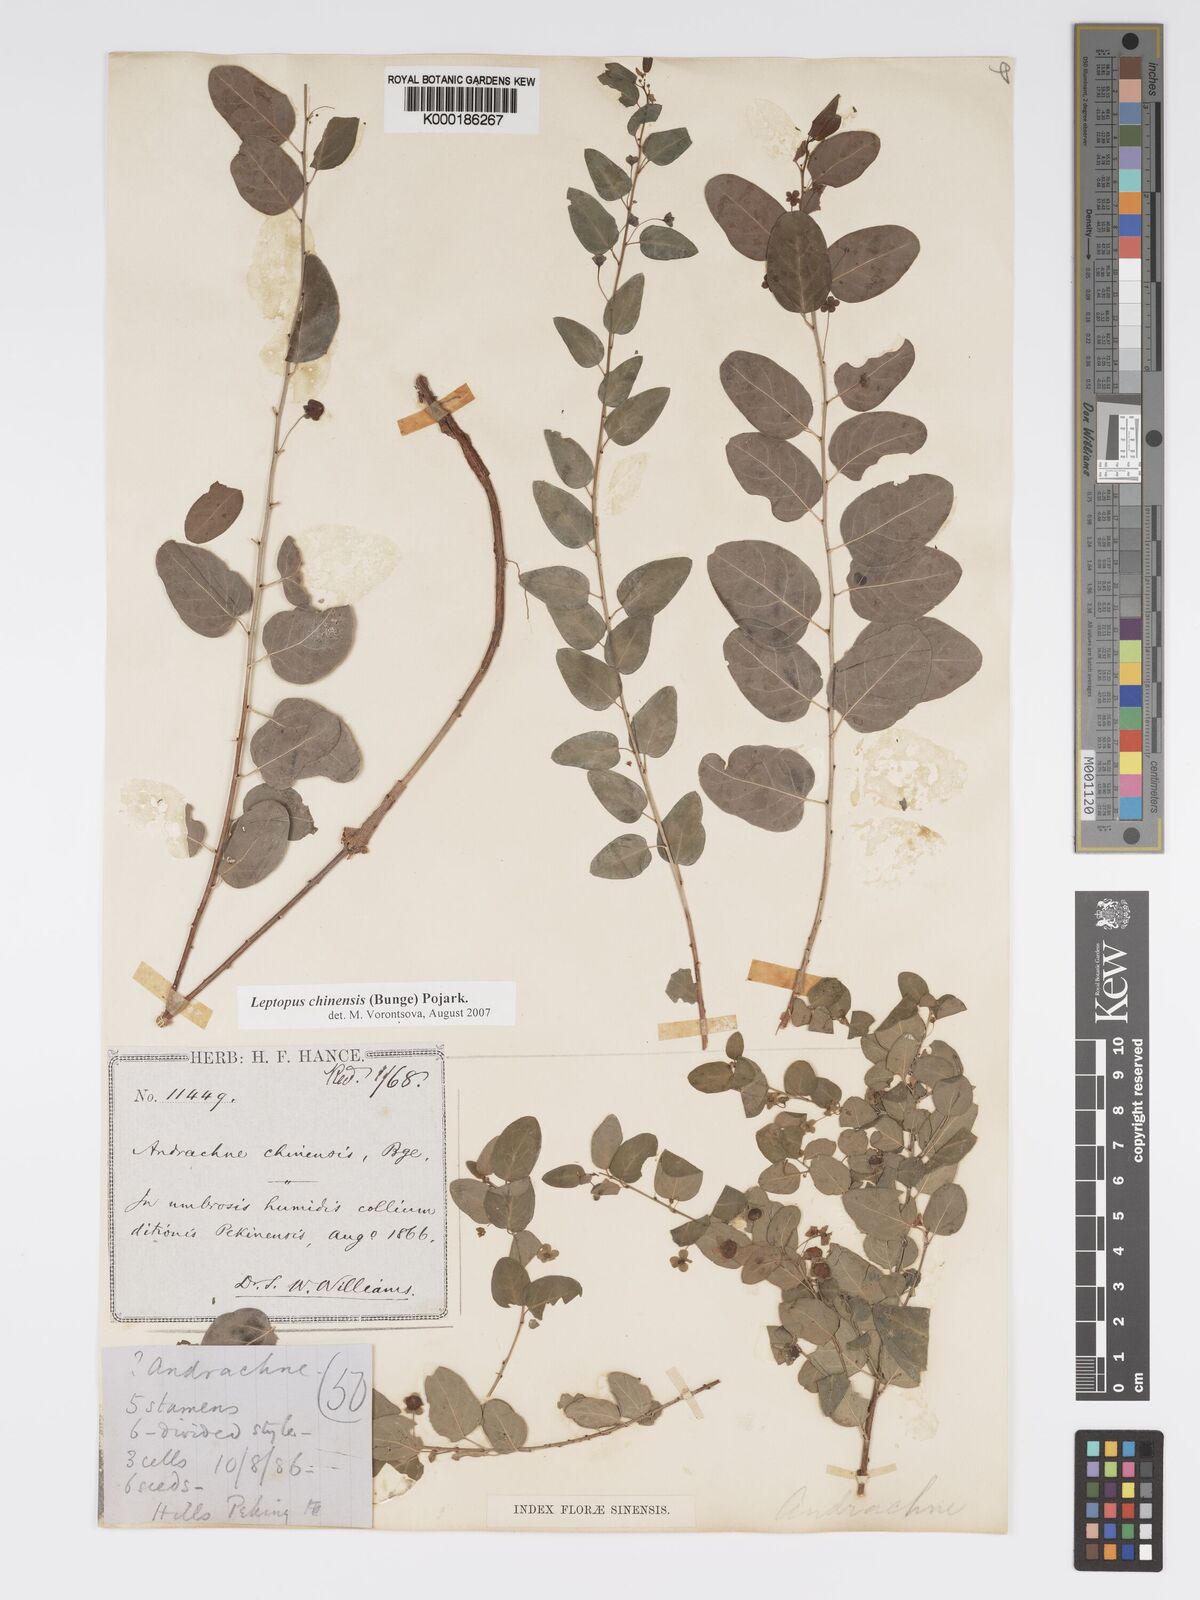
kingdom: Plantae
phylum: Tracheophyta
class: Magnoliopsida
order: Malpighiales
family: Phyllanthaceae
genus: Leptopus
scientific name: Leptopus chinensis
